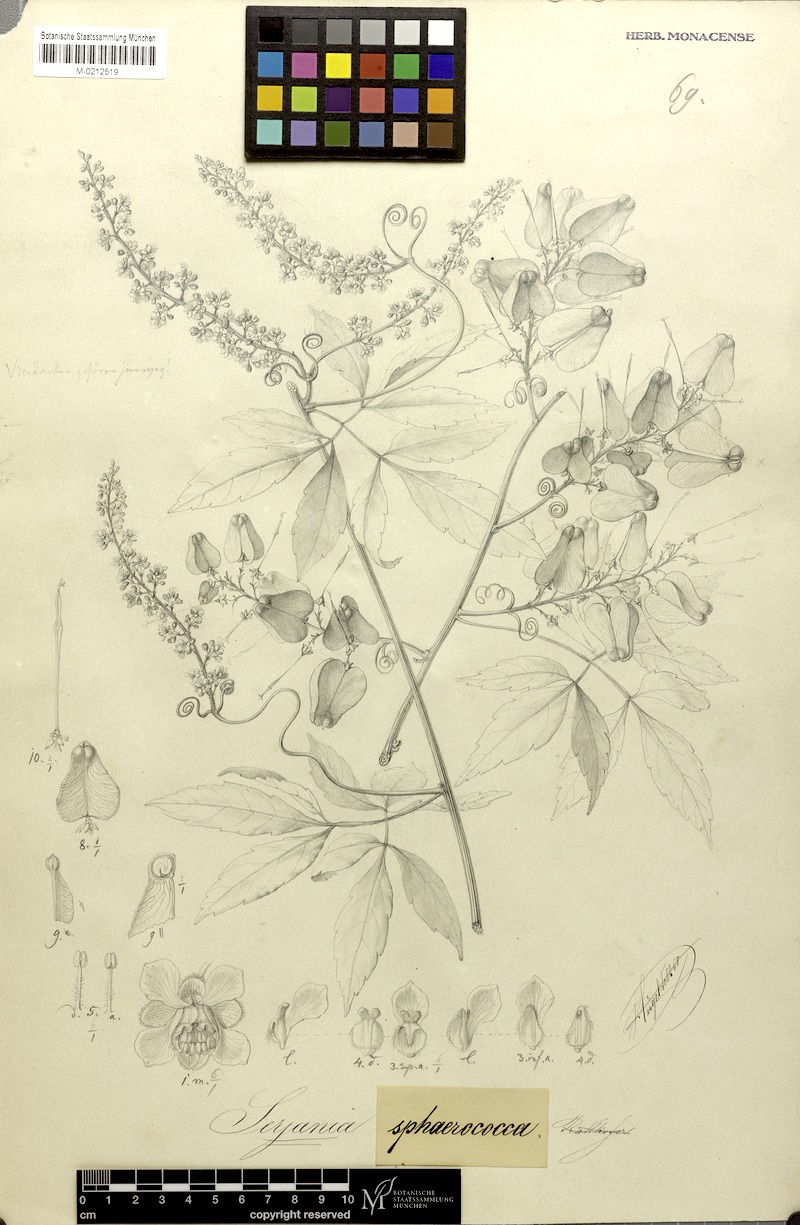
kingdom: Plantae
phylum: Tracheophyta
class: Magnoliopsida
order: Sapindales
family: Sapindaceae
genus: Serjania
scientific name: Serjania sphaerococca
